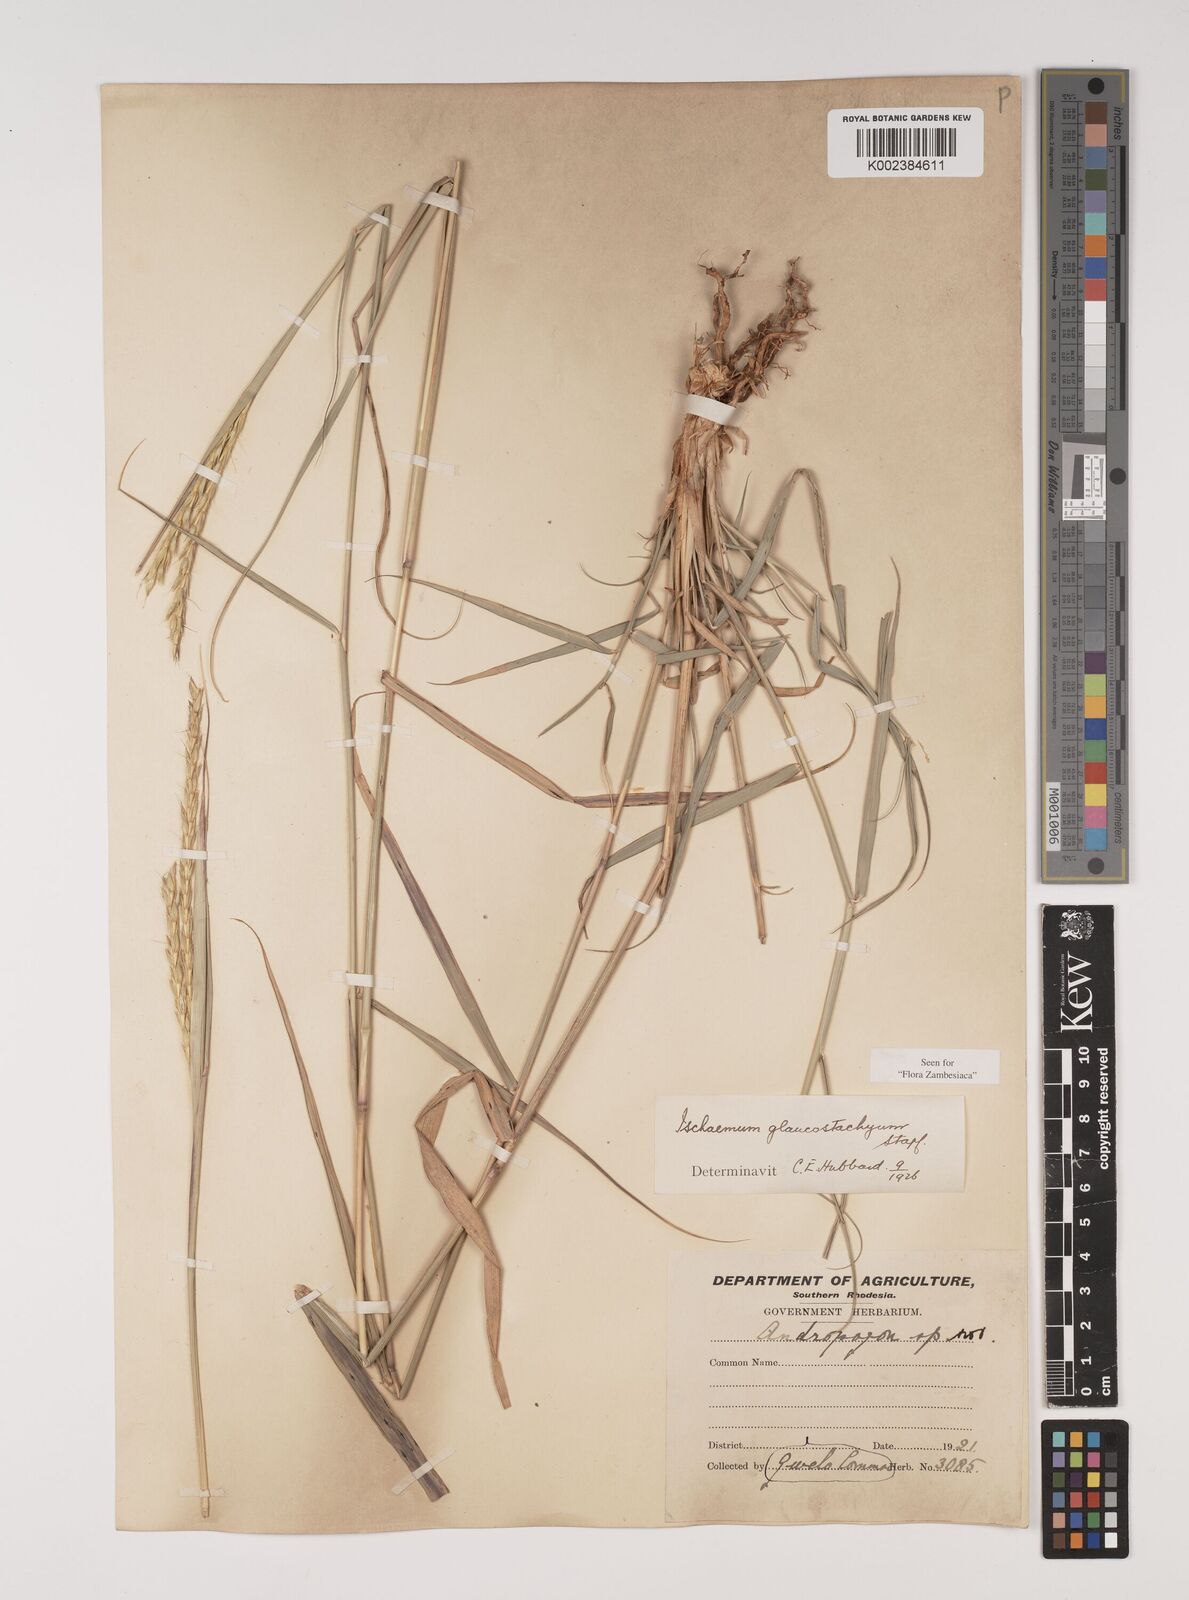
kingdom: Plantae
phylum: Tracheophyta
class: Liliopsida
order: Poales
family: Poaceae
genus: Ischaemum
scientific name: Ischaemum afrum
